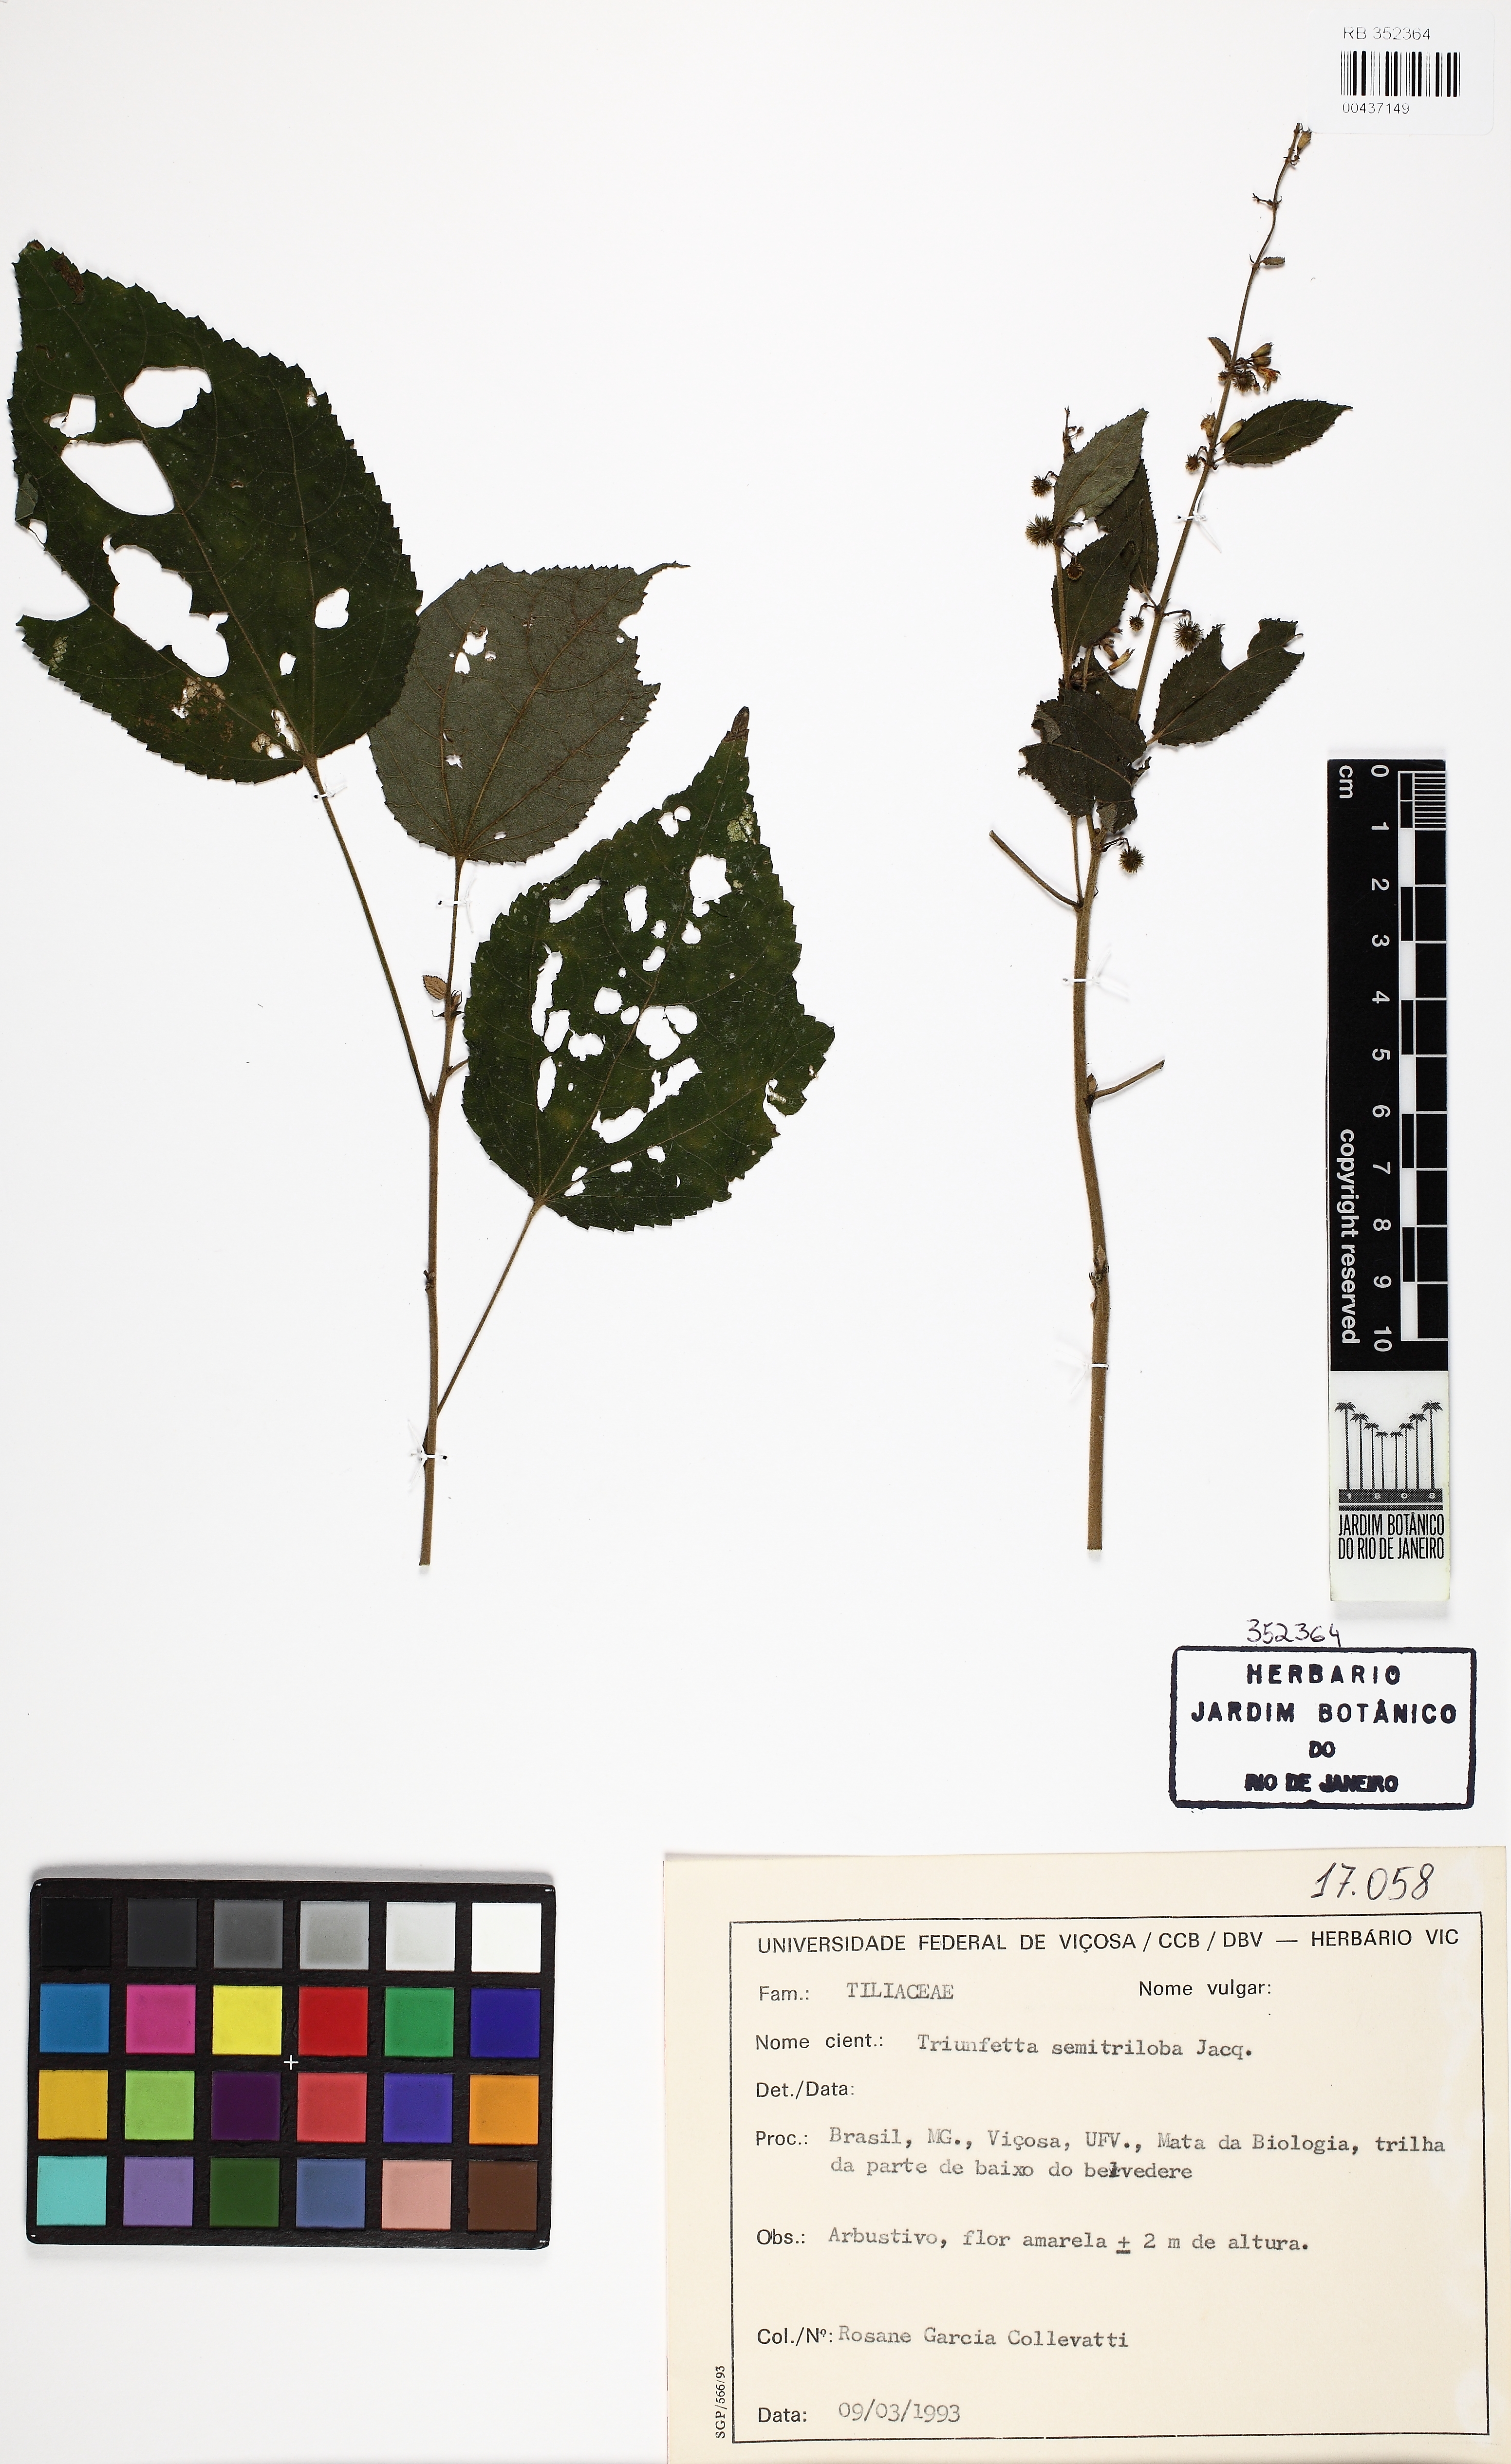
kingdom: Plantae
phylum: Tracheophyta
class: Magnoliopsida
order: Malvales
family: Malvaceae
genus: Triumfetta
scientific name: Triumfetta semitriloba
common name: Sacramento burbark
